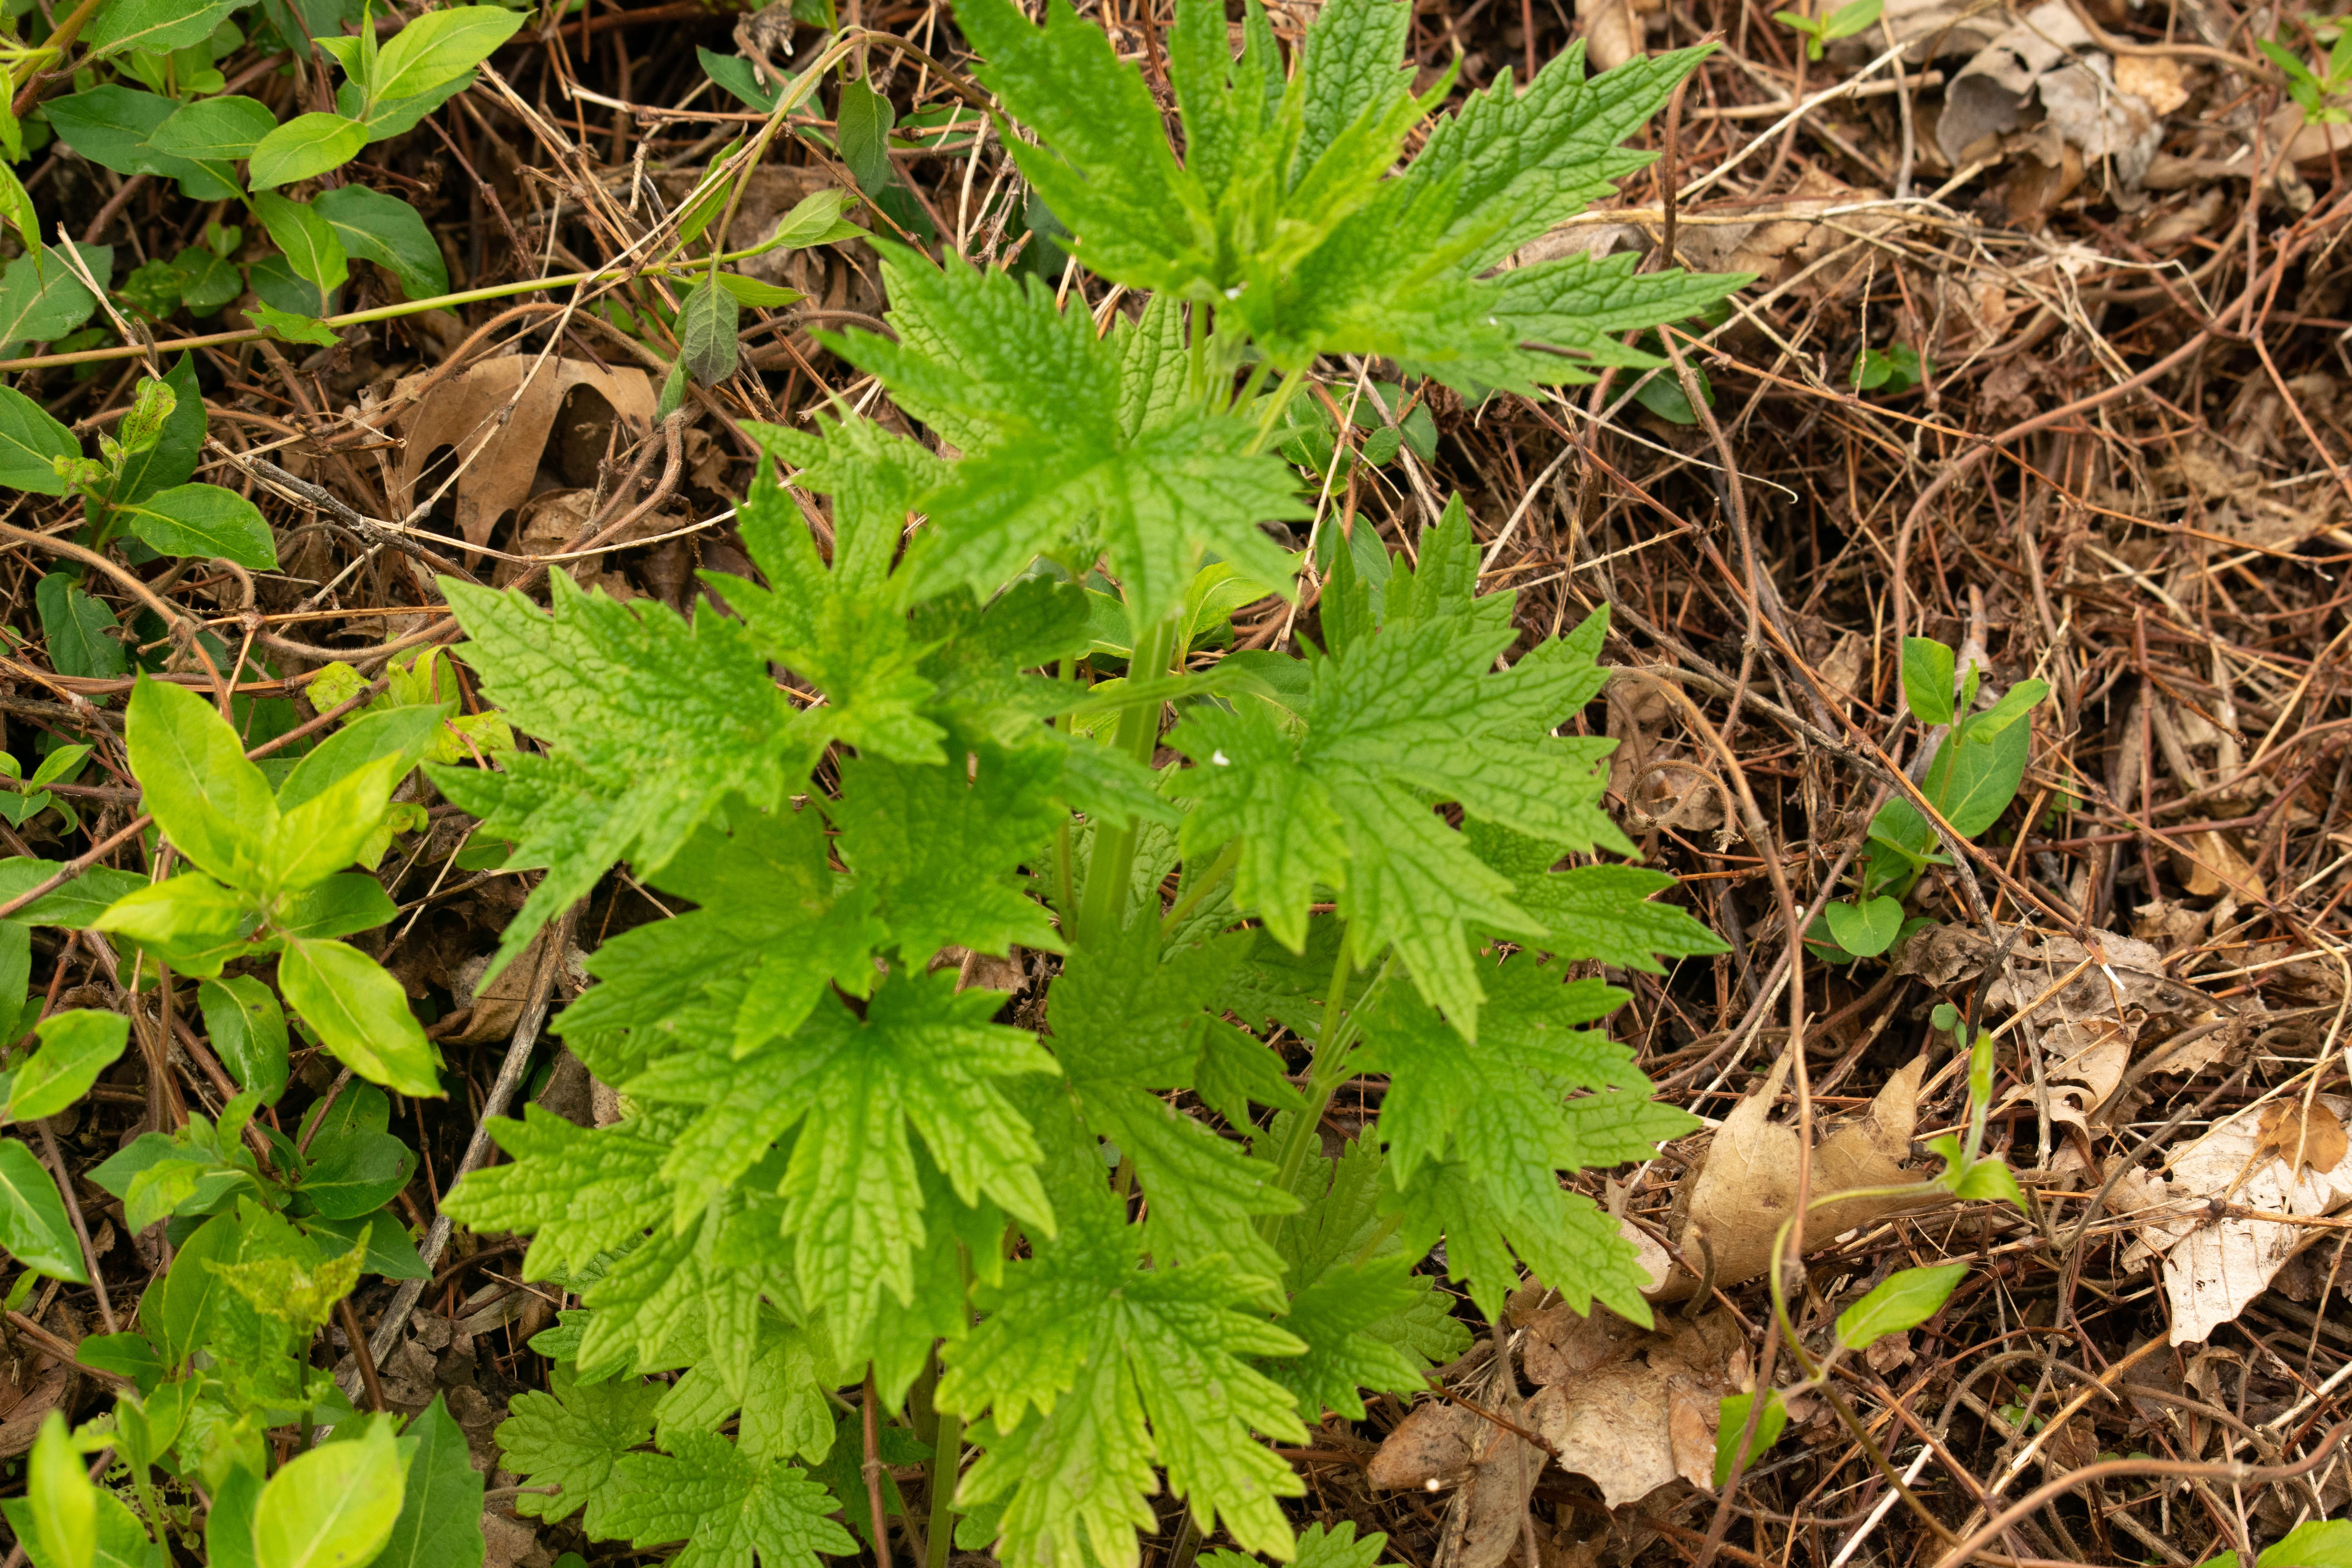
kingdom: Plantae
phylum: Tracheophyta
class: Magnoliopsida
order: Lamiales
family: Lamiaceae
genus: Leonurus
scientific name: Leonurus cardiaca
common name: Motherwort
